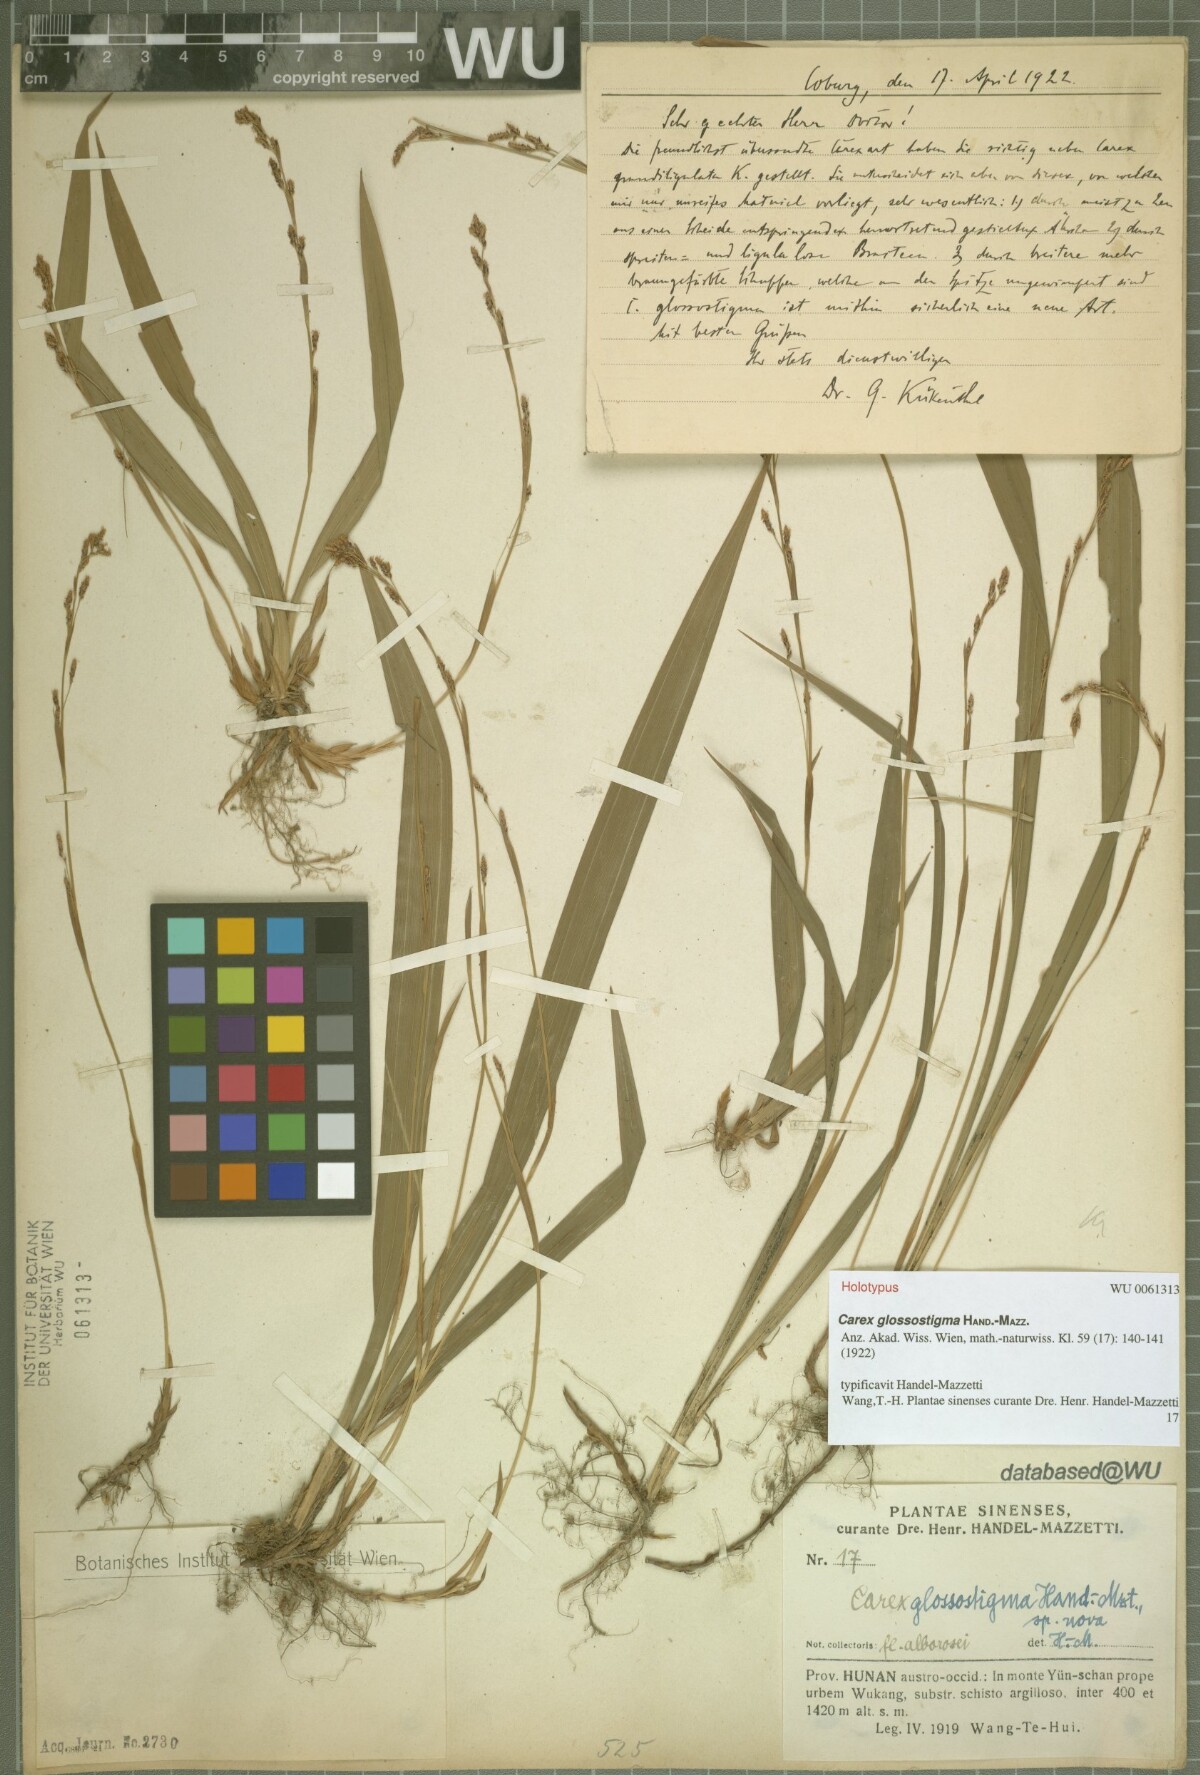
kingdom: Plantae
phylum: Tracheophyta
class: Liliopsida
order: Poales
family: Cyperaceae
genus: Carex
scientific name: Carex glossostigma
